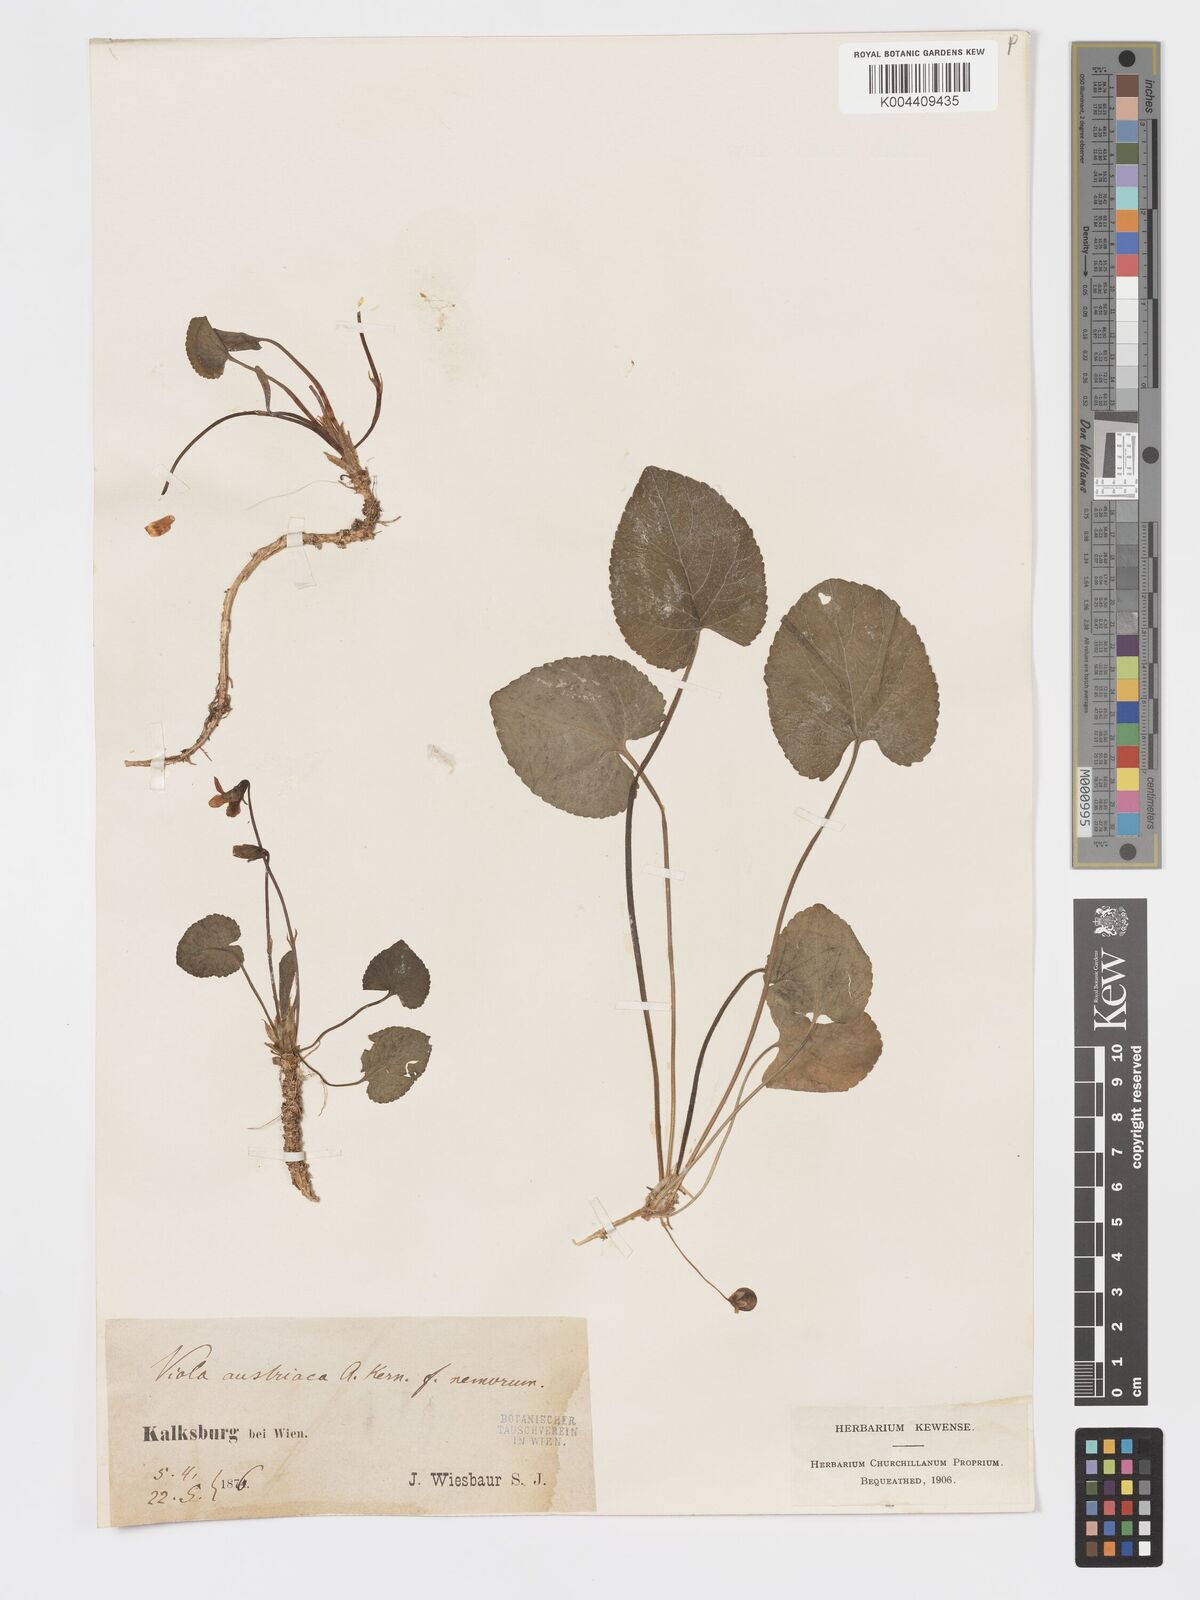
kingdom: Plantae
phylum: Tracheophyta
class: Magnoliopsida
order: Malpighiales
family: Violaceae
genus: Viola
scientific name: Viola kalksburgensis
